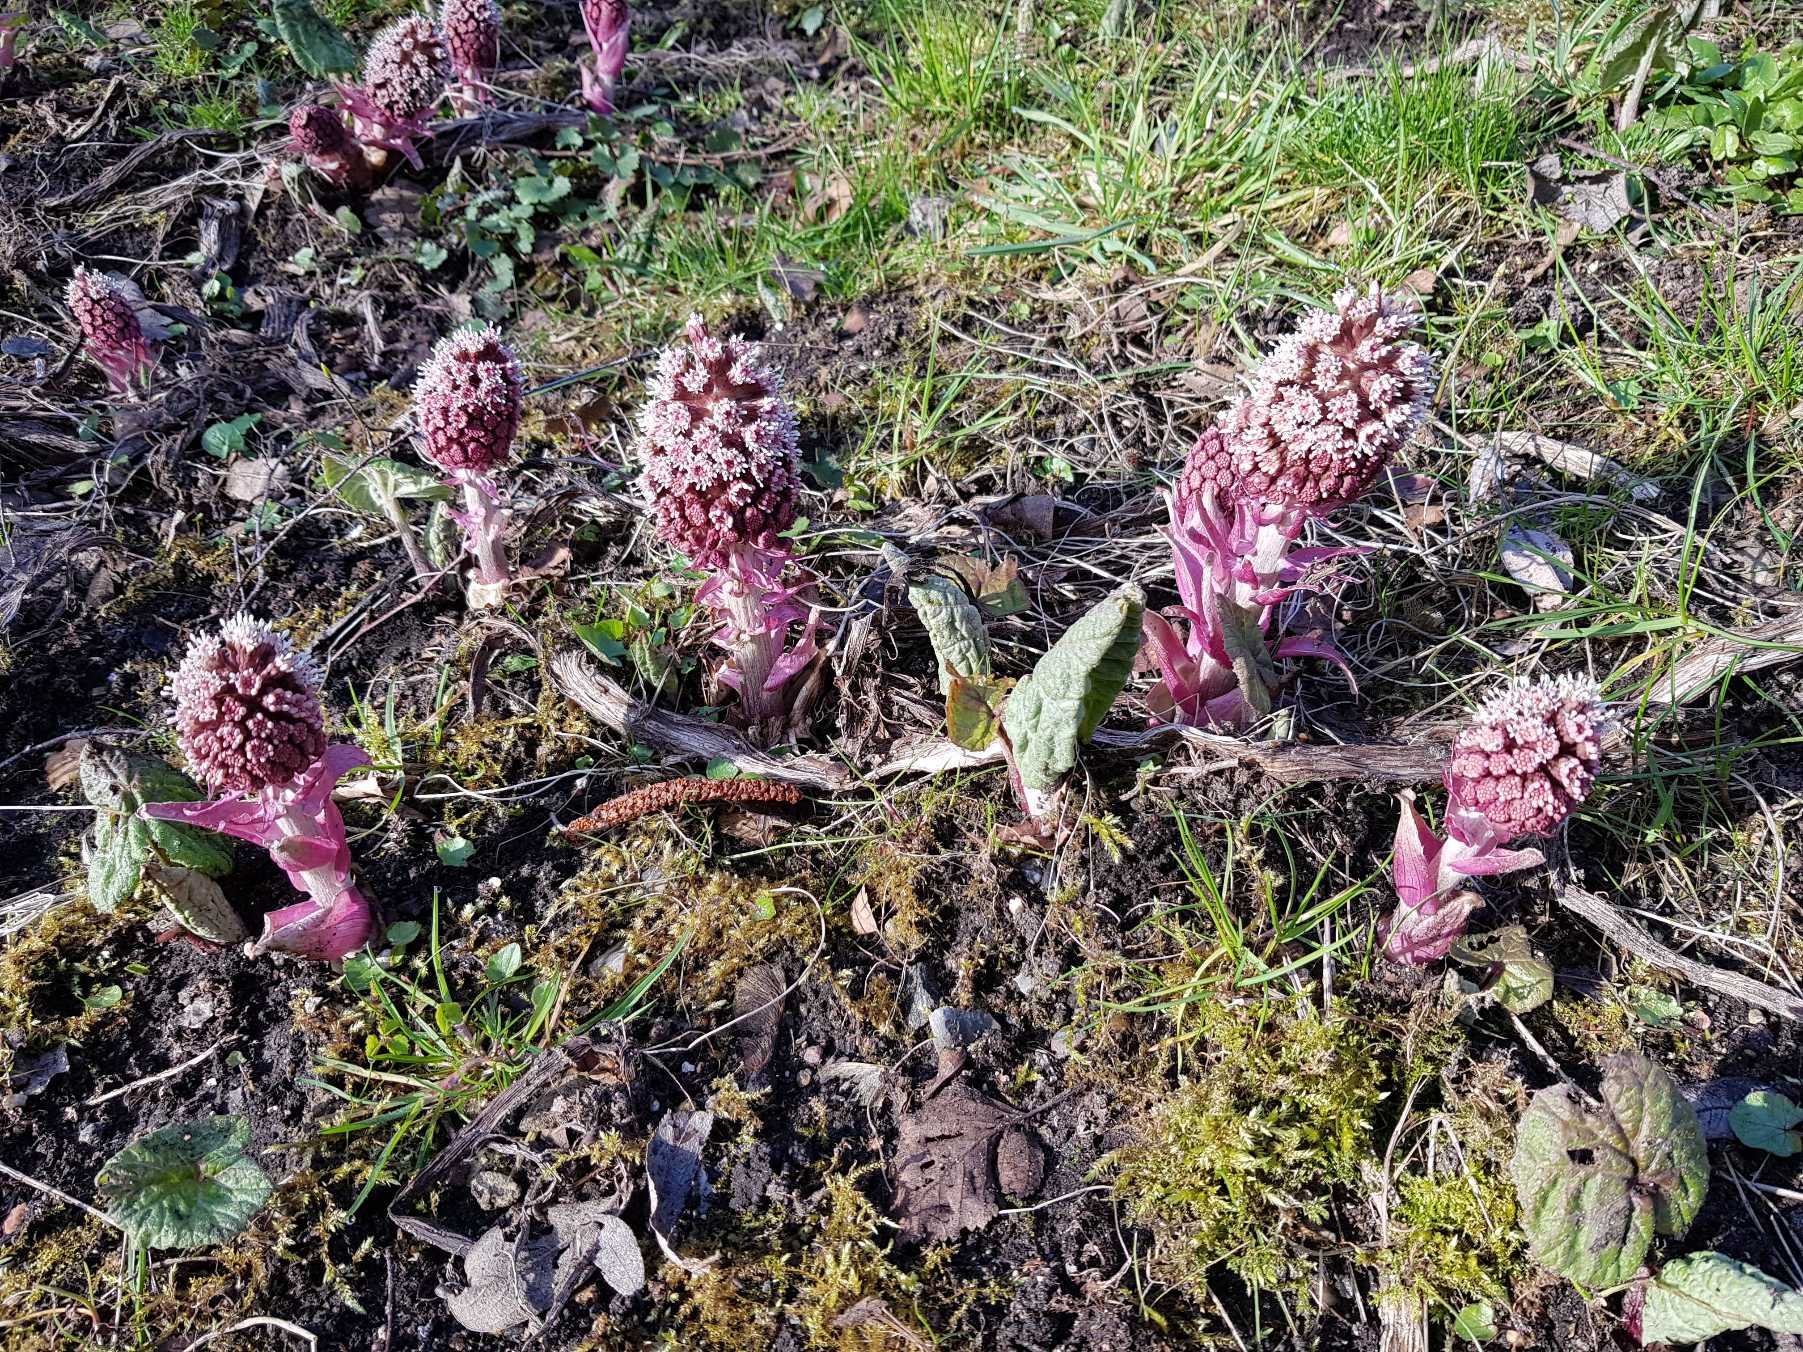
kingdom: Plantae
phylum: Tracheophyta
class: Magnoliopsida
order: Asterales
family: Asteraceae
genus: Petasites
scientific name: Petasites hybridus
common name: Rød hestehov
